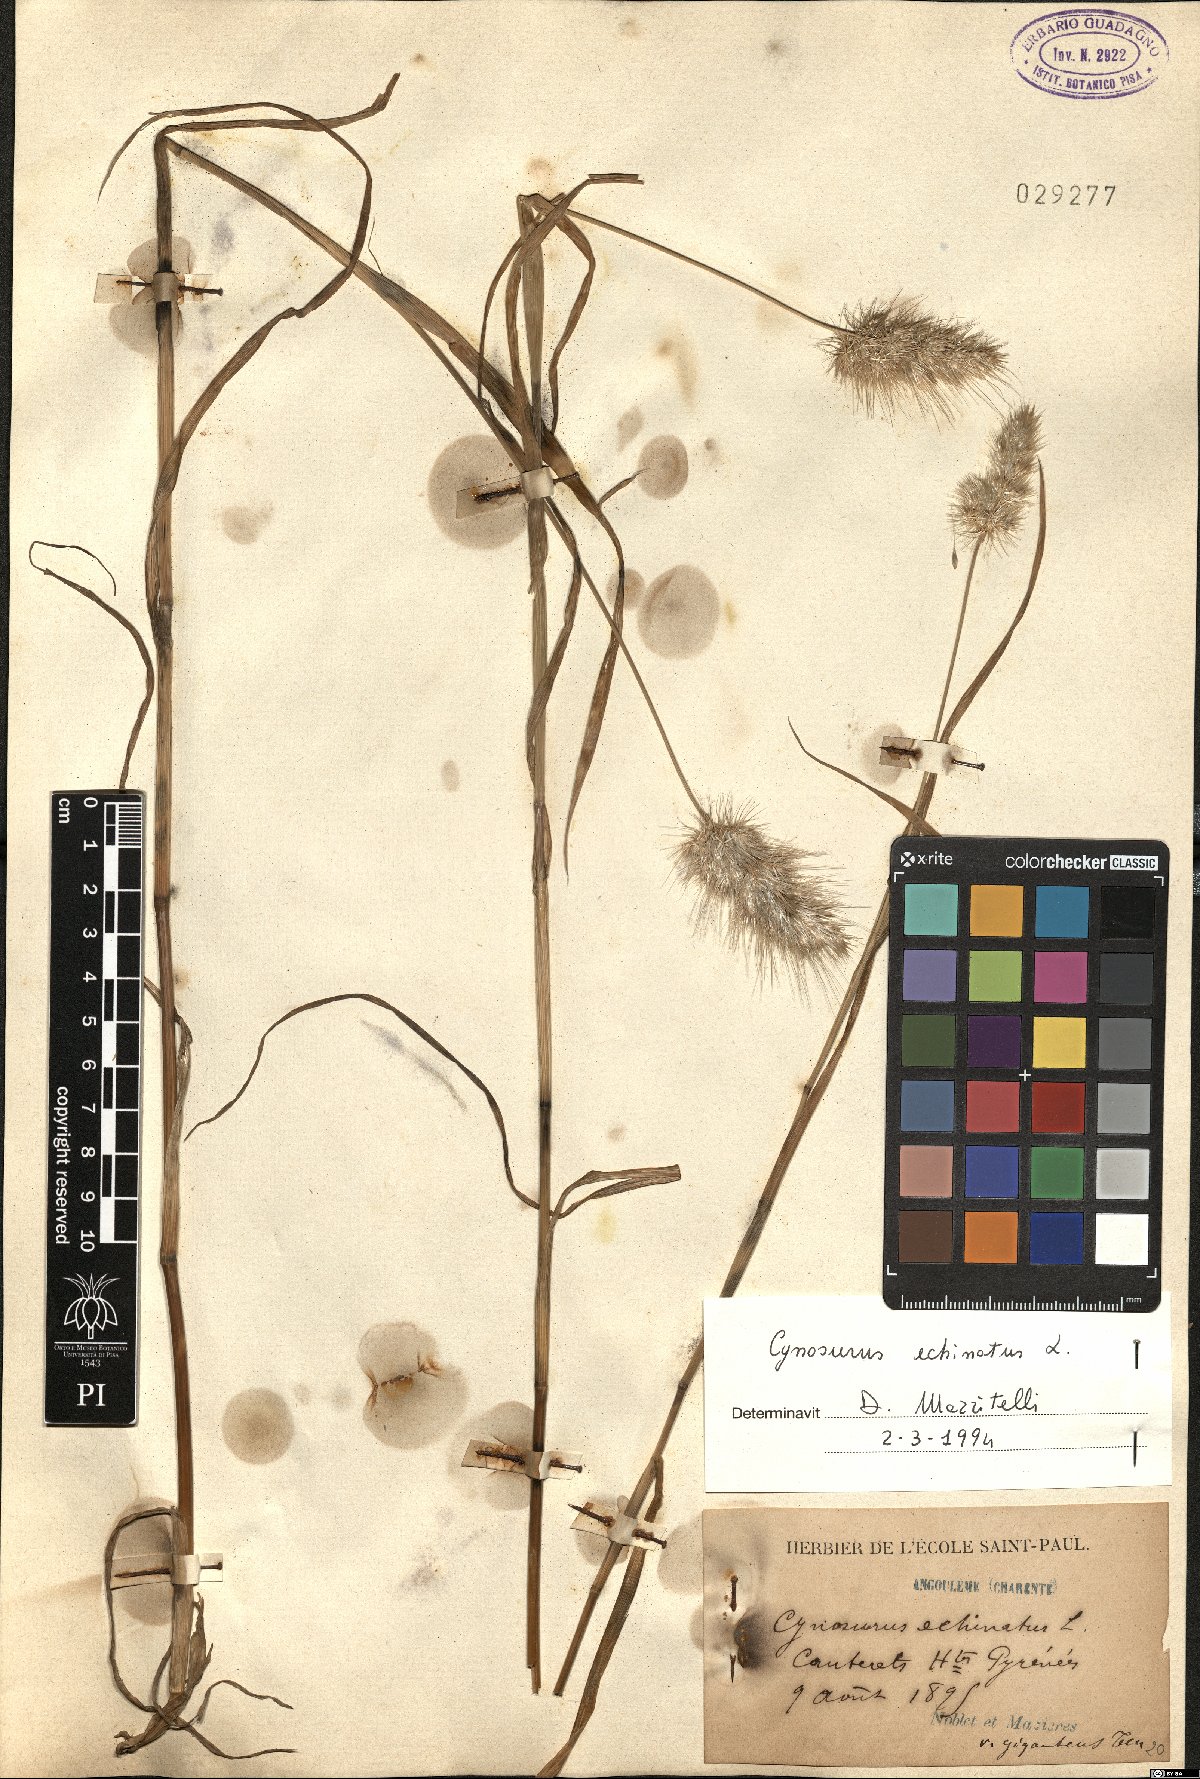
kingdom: Plantae
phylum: Tracheophyta
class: Liliopsida
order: Poales
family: Poaceae
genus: Cynosurus
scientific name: Cynosurus echinatus
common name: Rough dog's-tail
